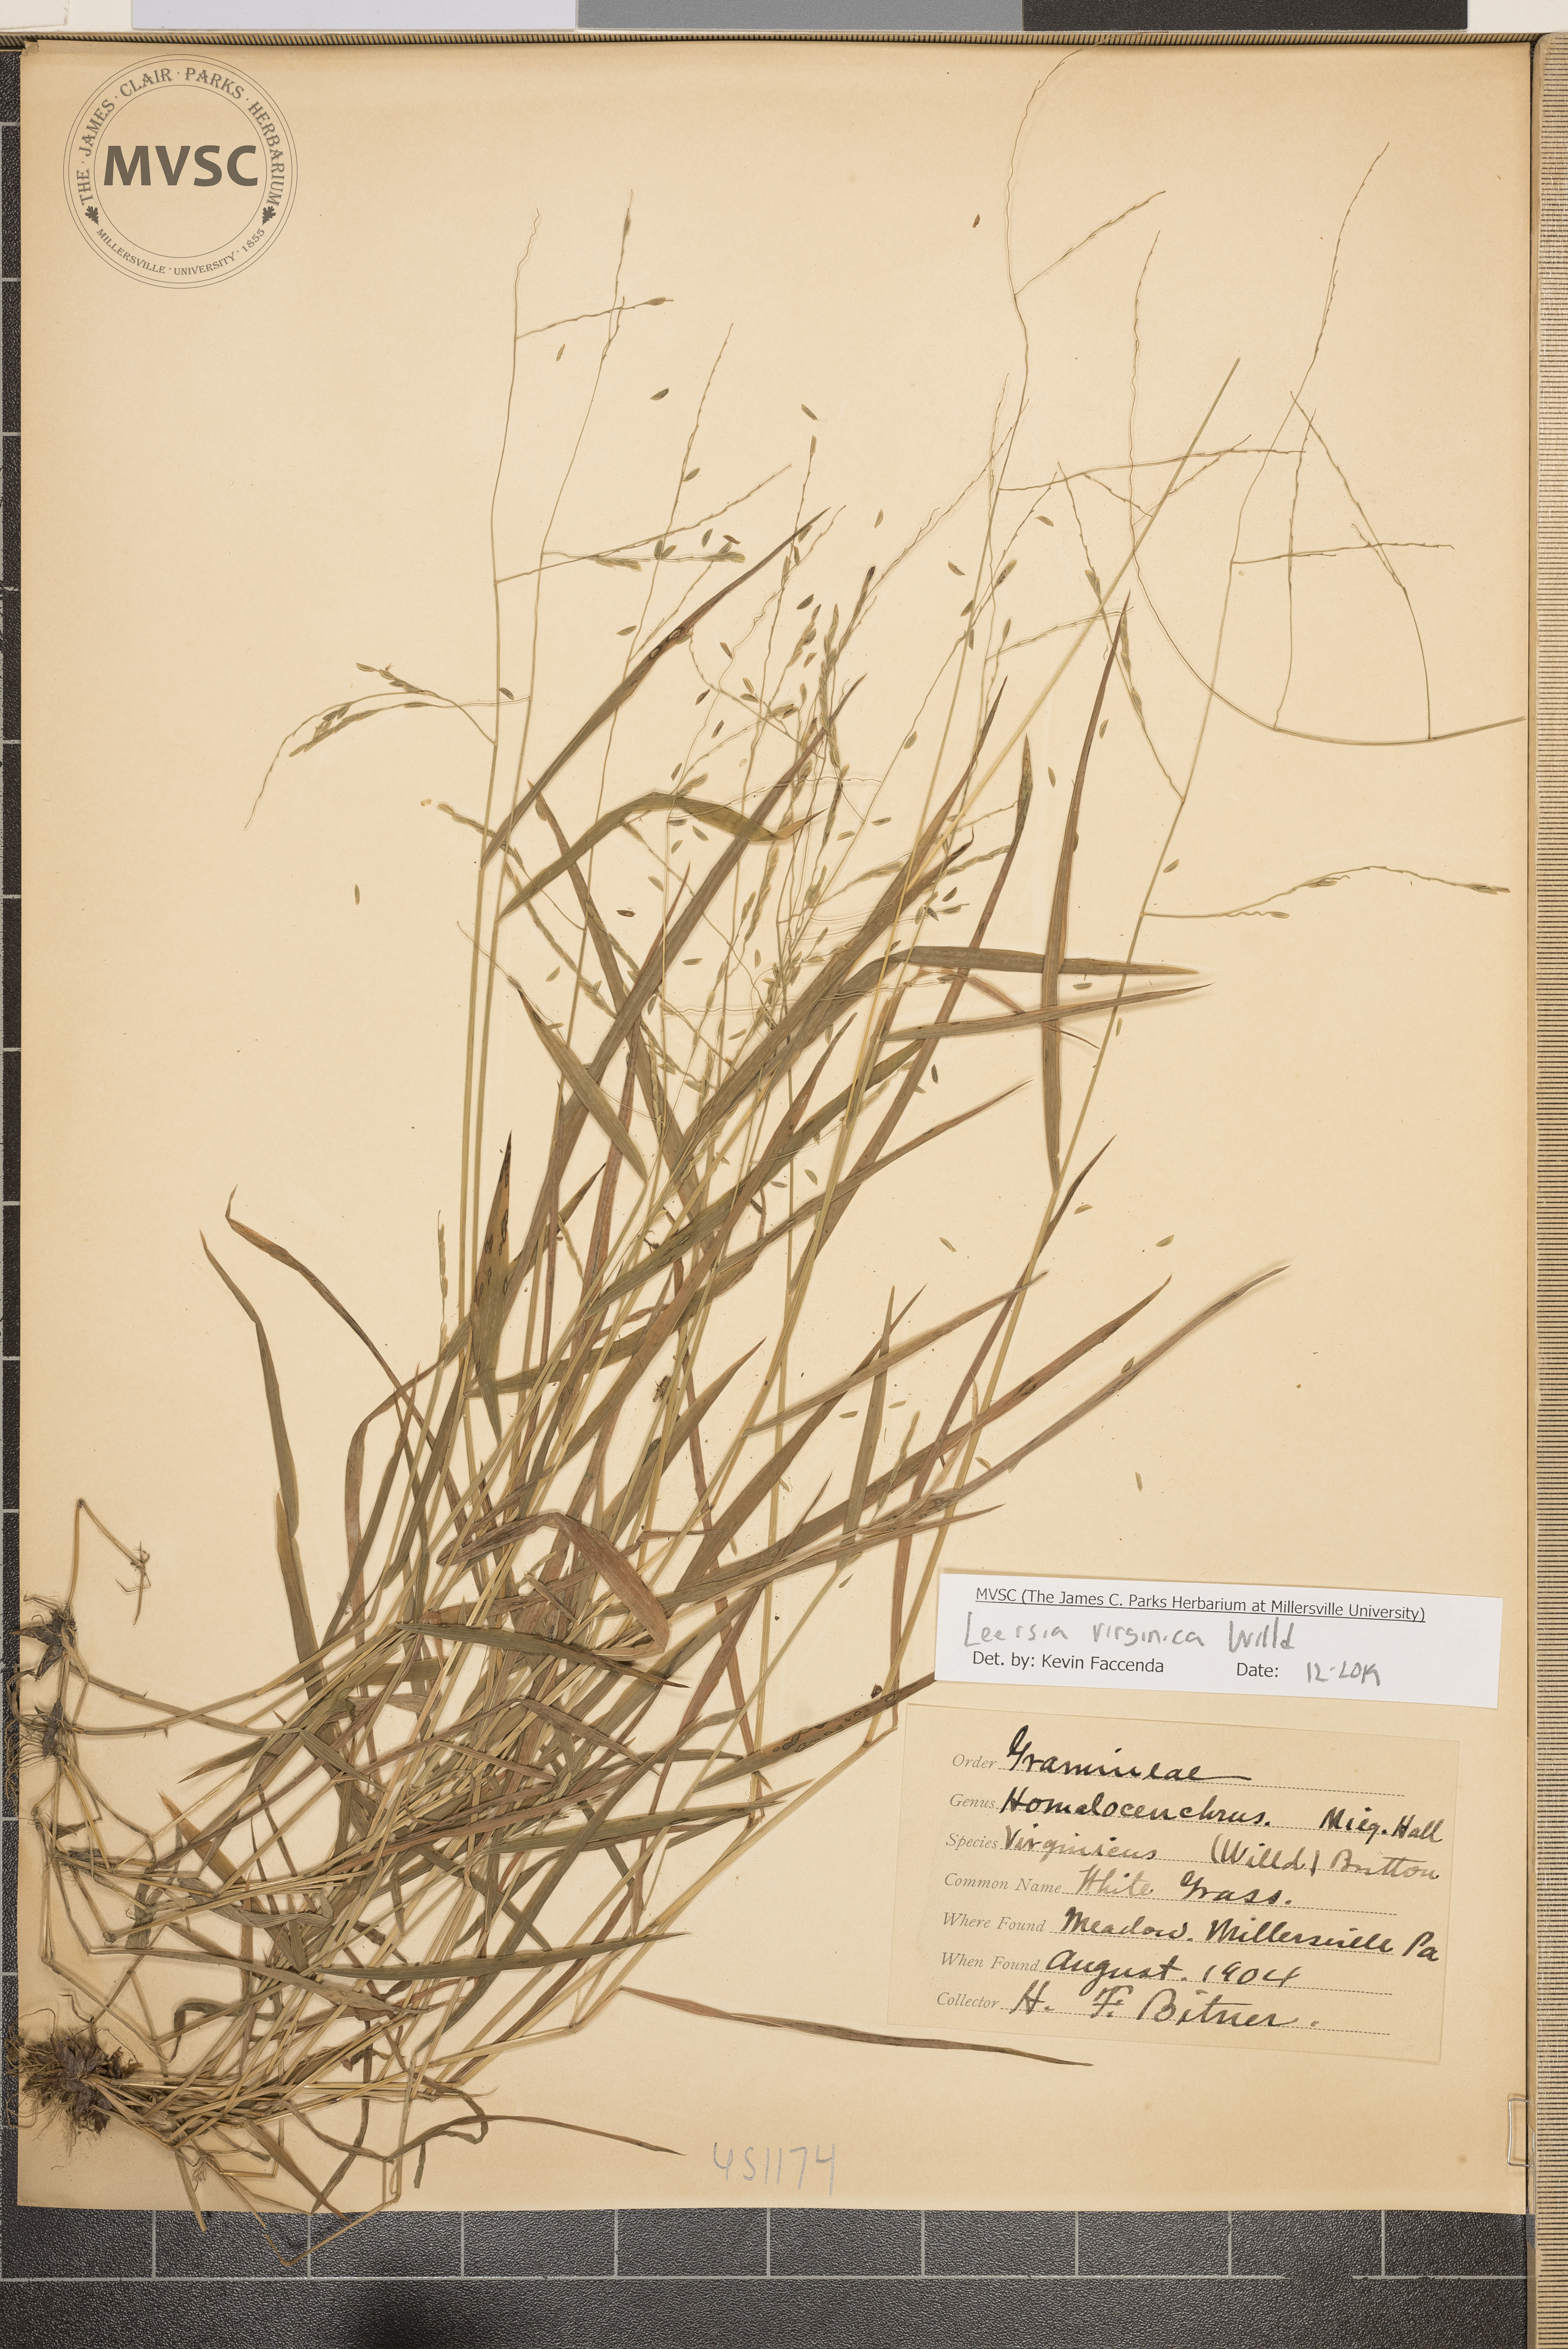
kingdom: Plantae
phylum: Tracheophyta
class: Liliopsida
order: Poales
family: Poaceae
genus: Leersia
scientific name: Leersia virginica
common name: White grass
